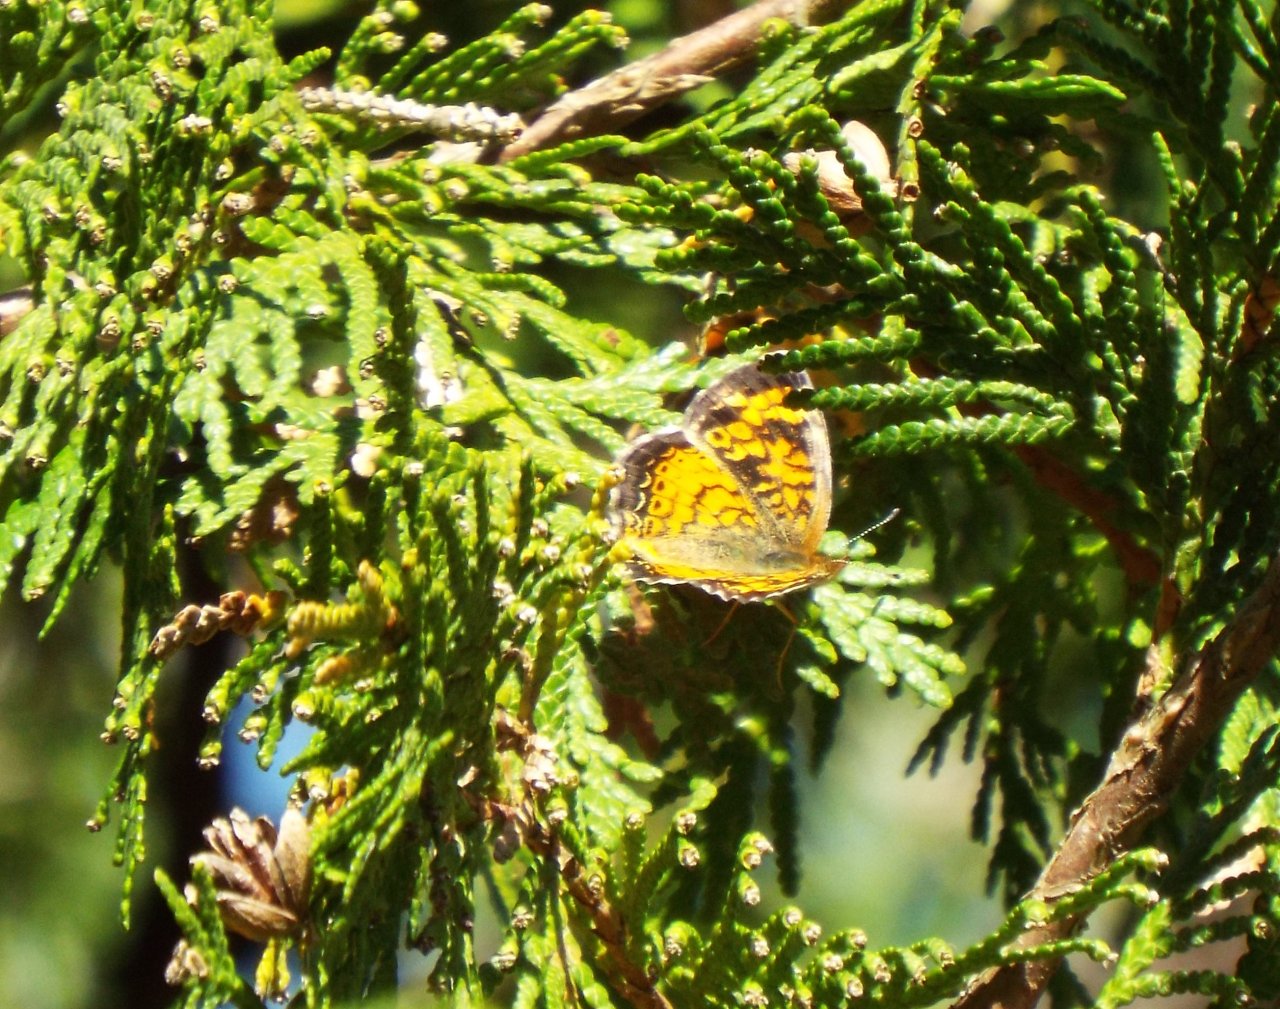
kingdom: Animalia
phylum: Arthropoda
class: Insecta
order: Lepidoptera
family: Nymphalidae
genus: Phyciodes
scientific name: Phyciodes tharos
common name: Pearl Crescent
